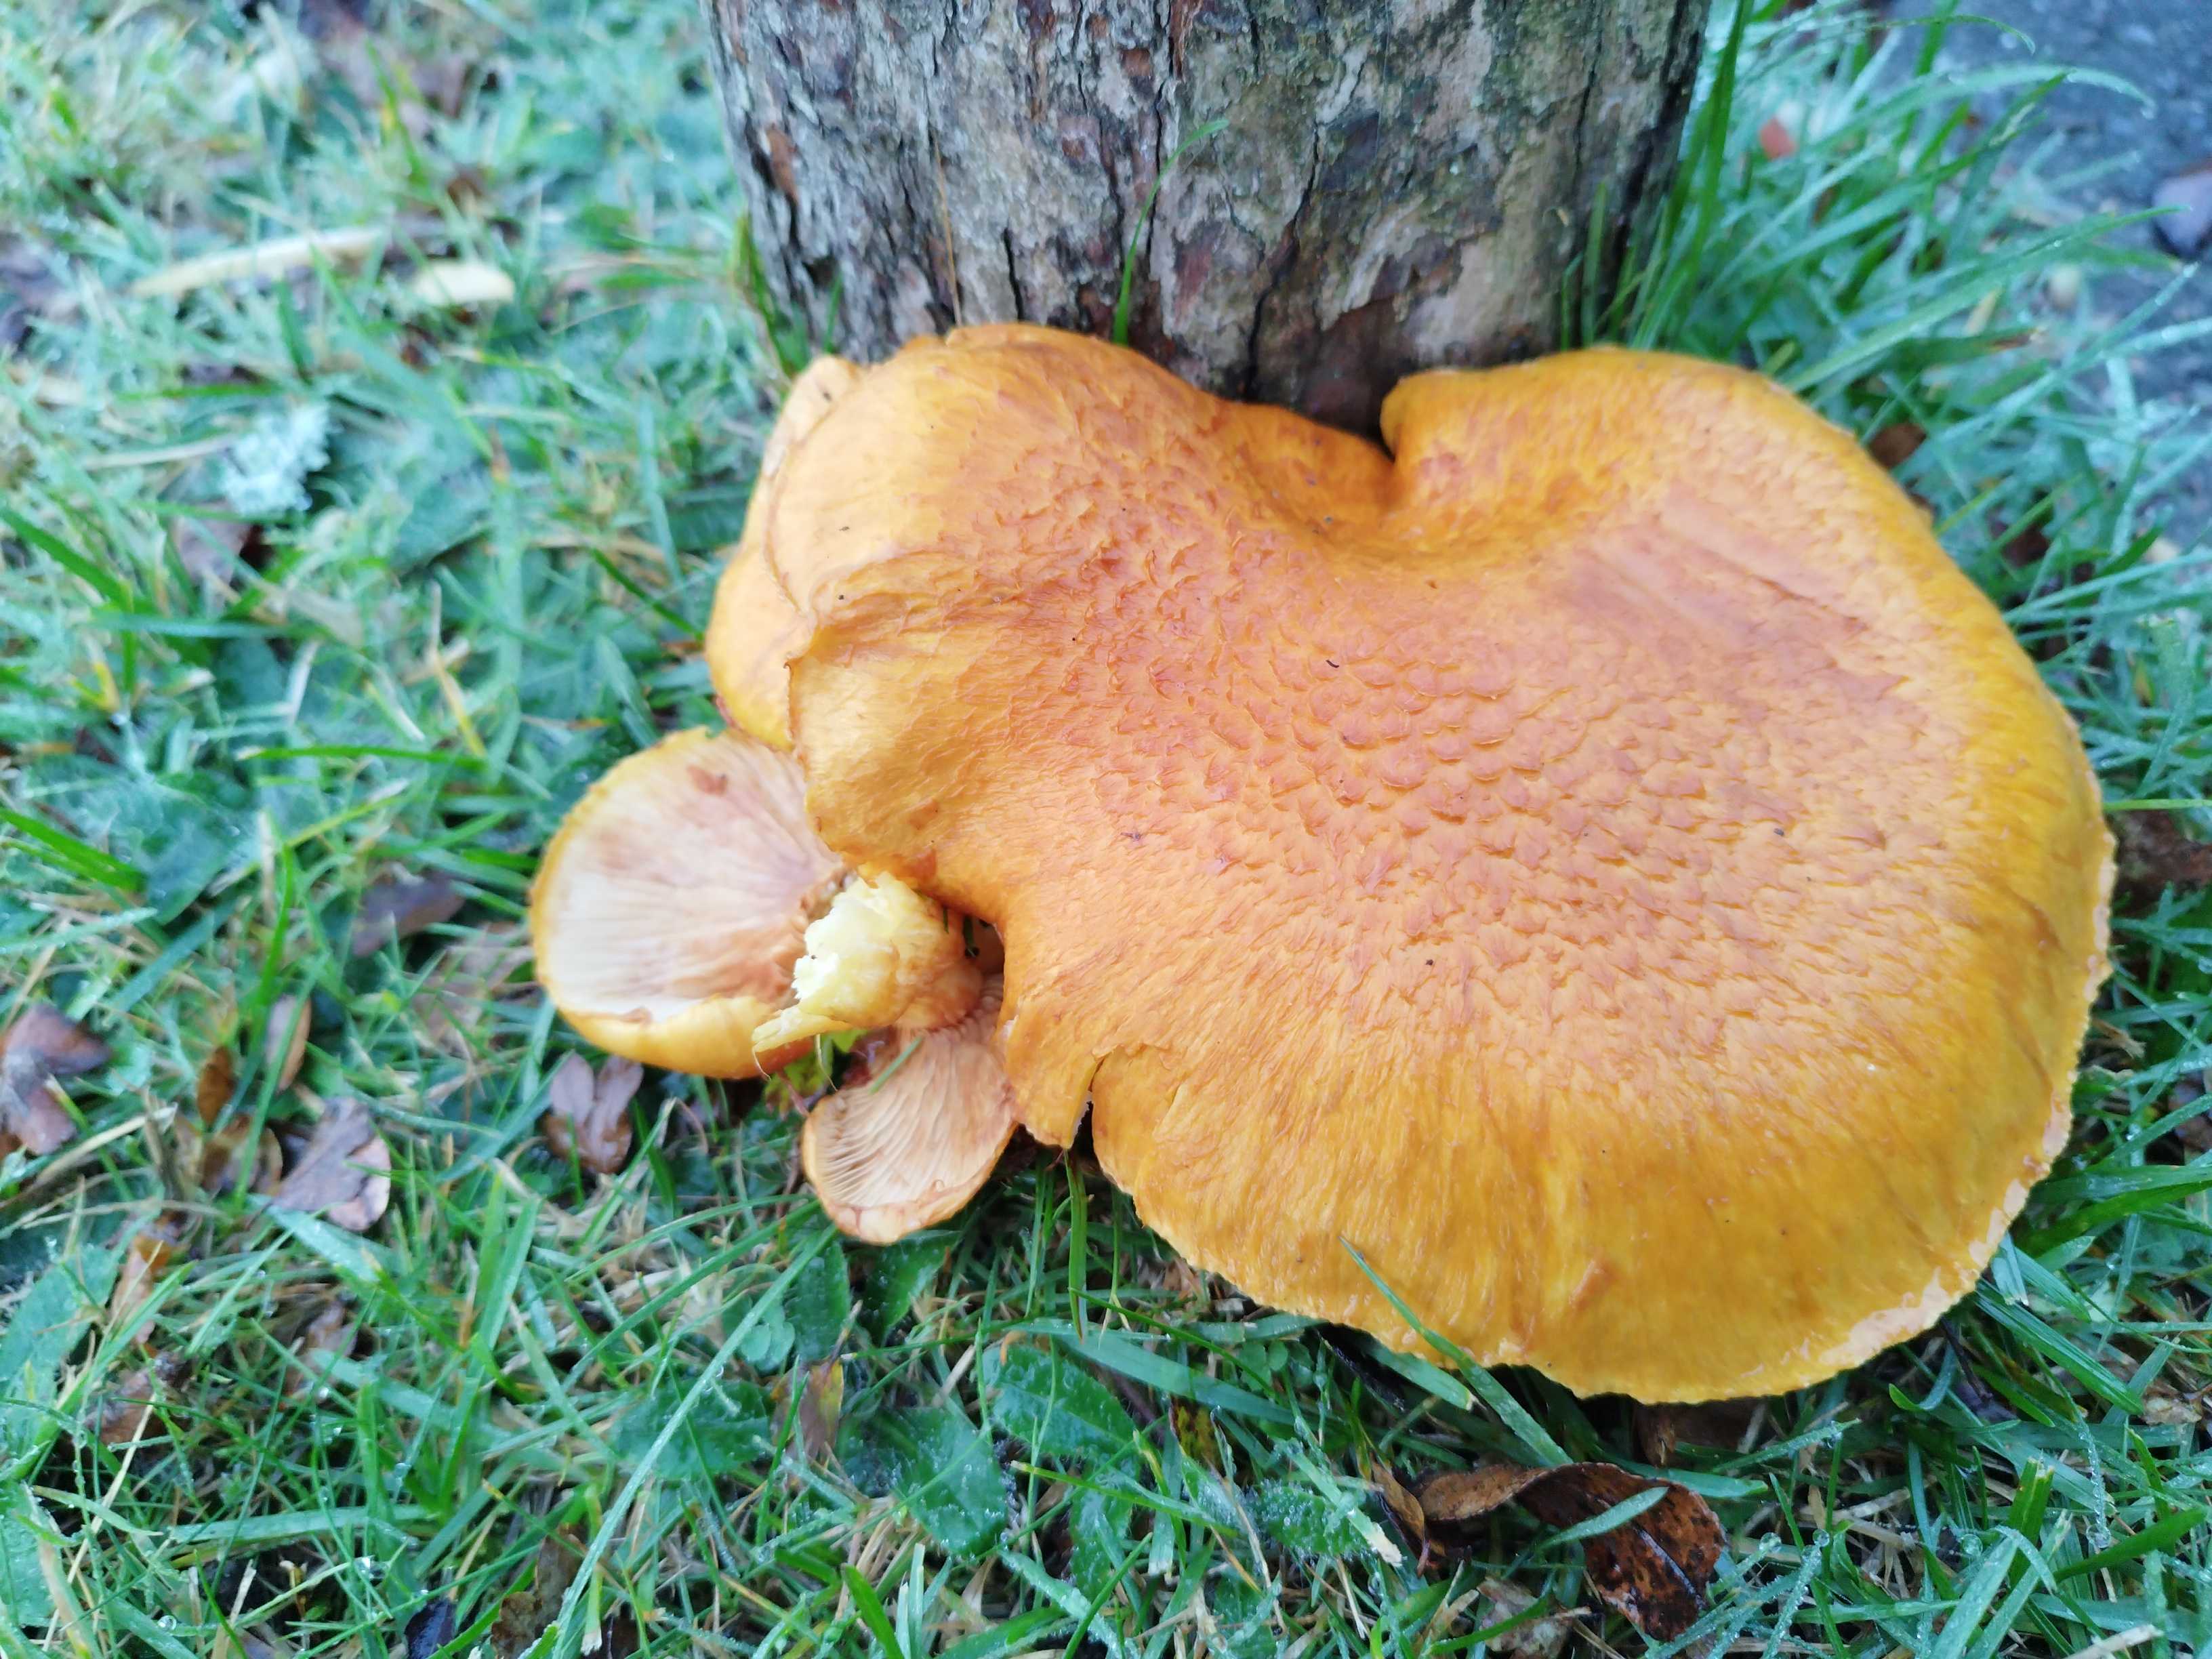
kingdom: Fungi
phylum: Basidiomycota
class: Agaricomycetes
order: Agaricales
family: Hymenogastraceae
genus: Gymnopilus
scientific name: Gymnopilus spectabilis
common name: fibret flammehat
